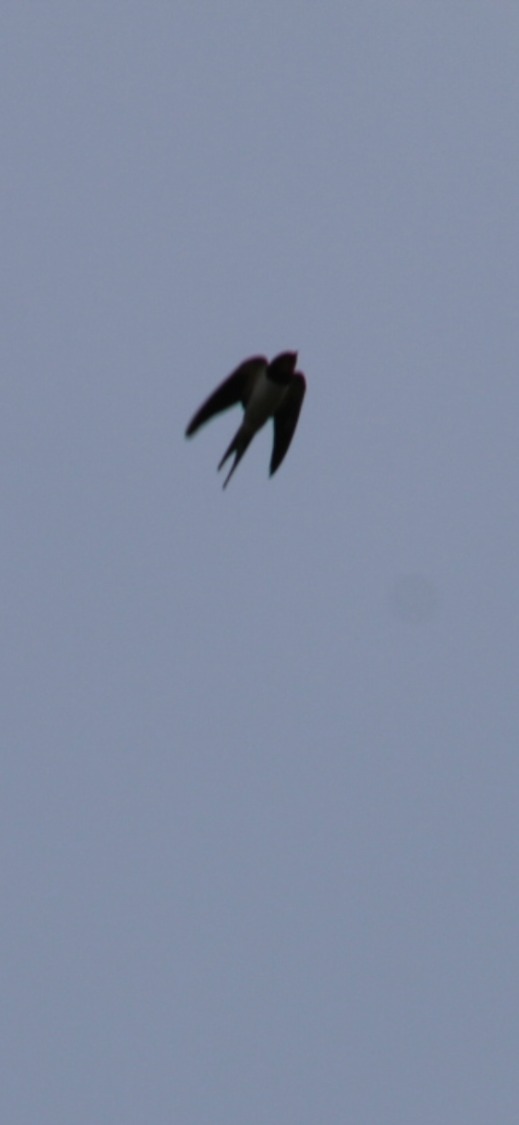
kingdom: Animalia
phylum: Chordata
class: Aves
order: Passeriformes
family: Hirundinidae
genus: Hirundo
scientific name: Hirundo rustica
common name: Landsvale
